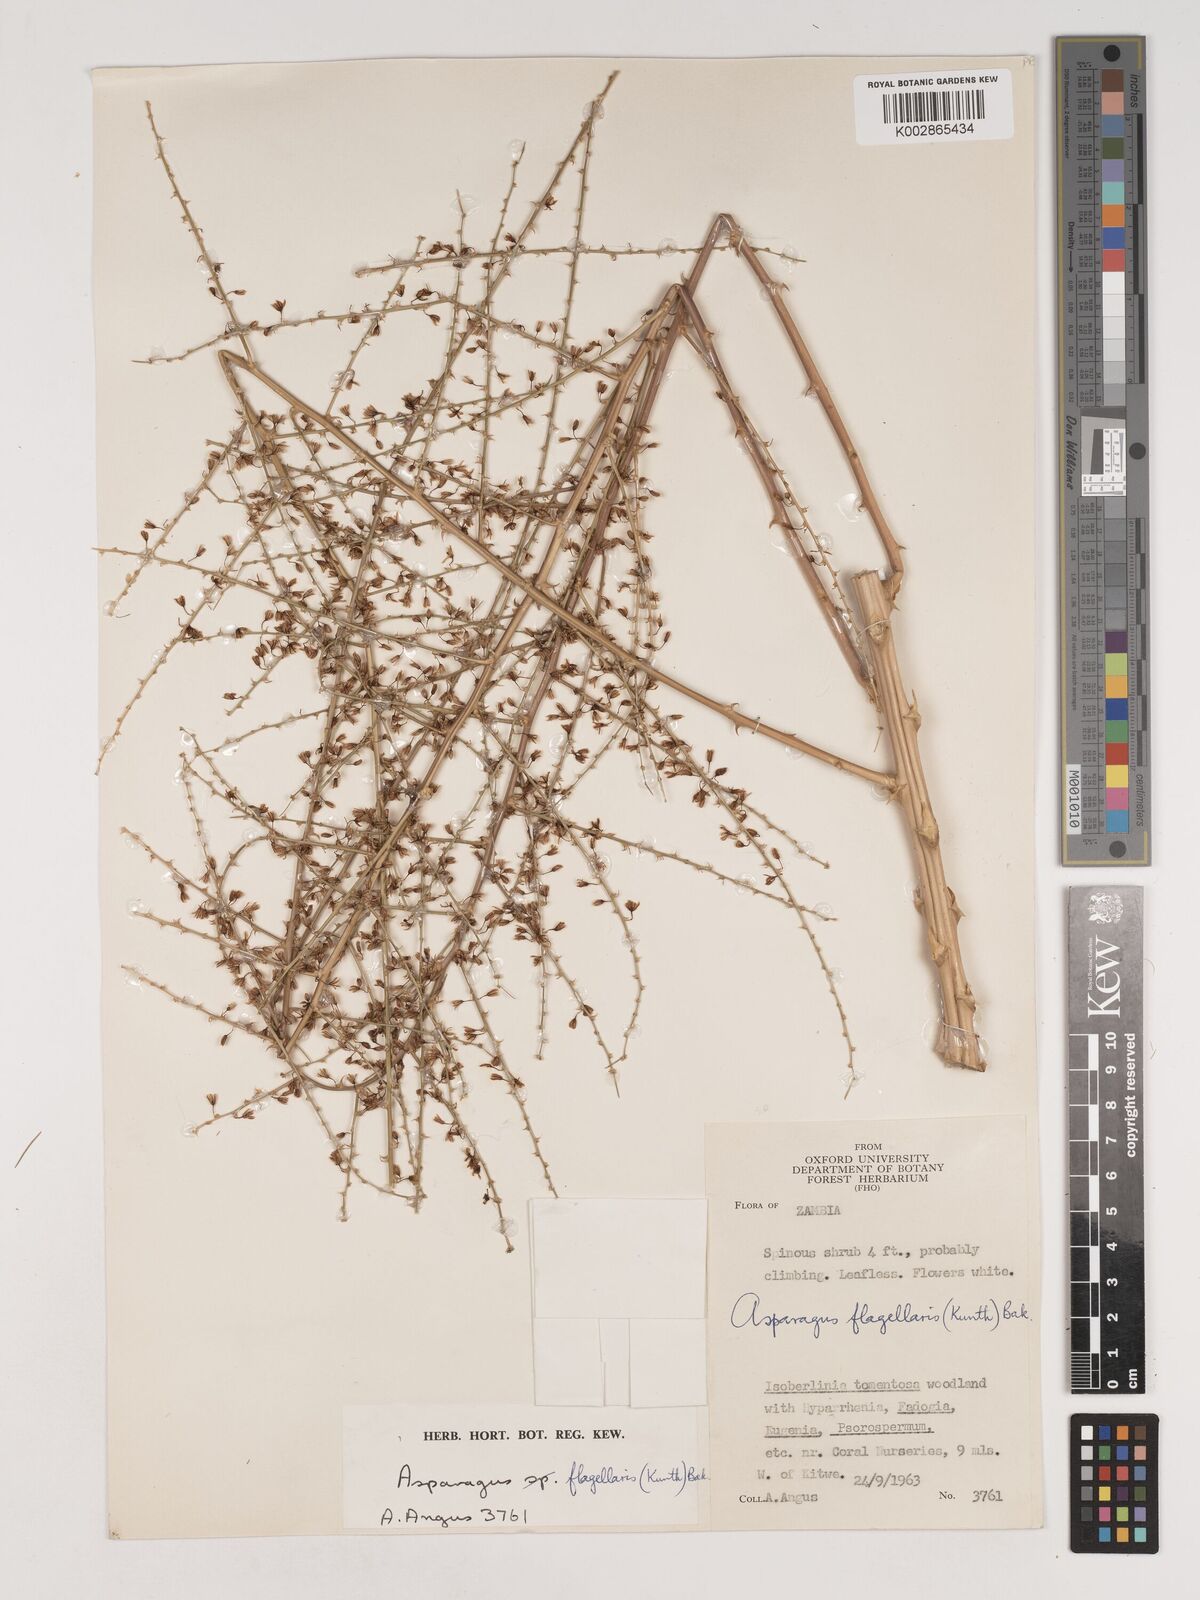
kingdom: Plantae
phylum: Tracheophyta
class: Liliopsida
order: Asparagales
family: Asparagaceae
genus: Asparagus
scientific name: Asparagus flagellaris
